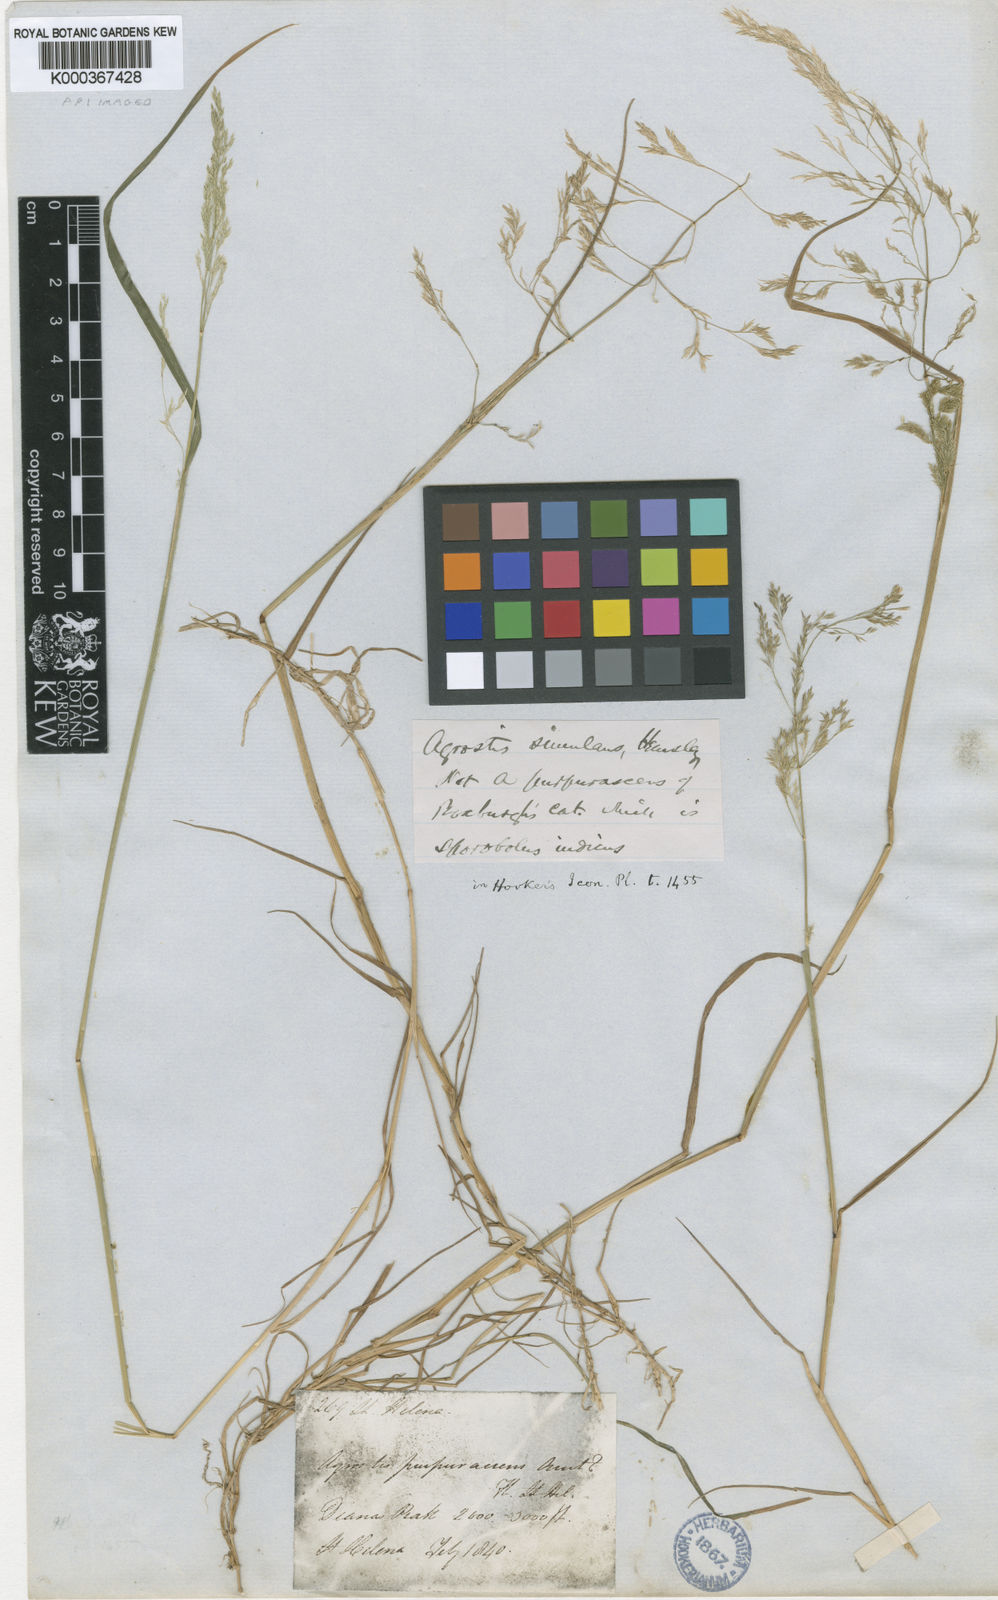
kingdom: Plantae
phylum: Tracheophyta
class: Liliopsida
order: Poales
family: Poaceae
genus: Agrostis
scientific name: Agrostis capillaris
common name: Colonial bentgrass
